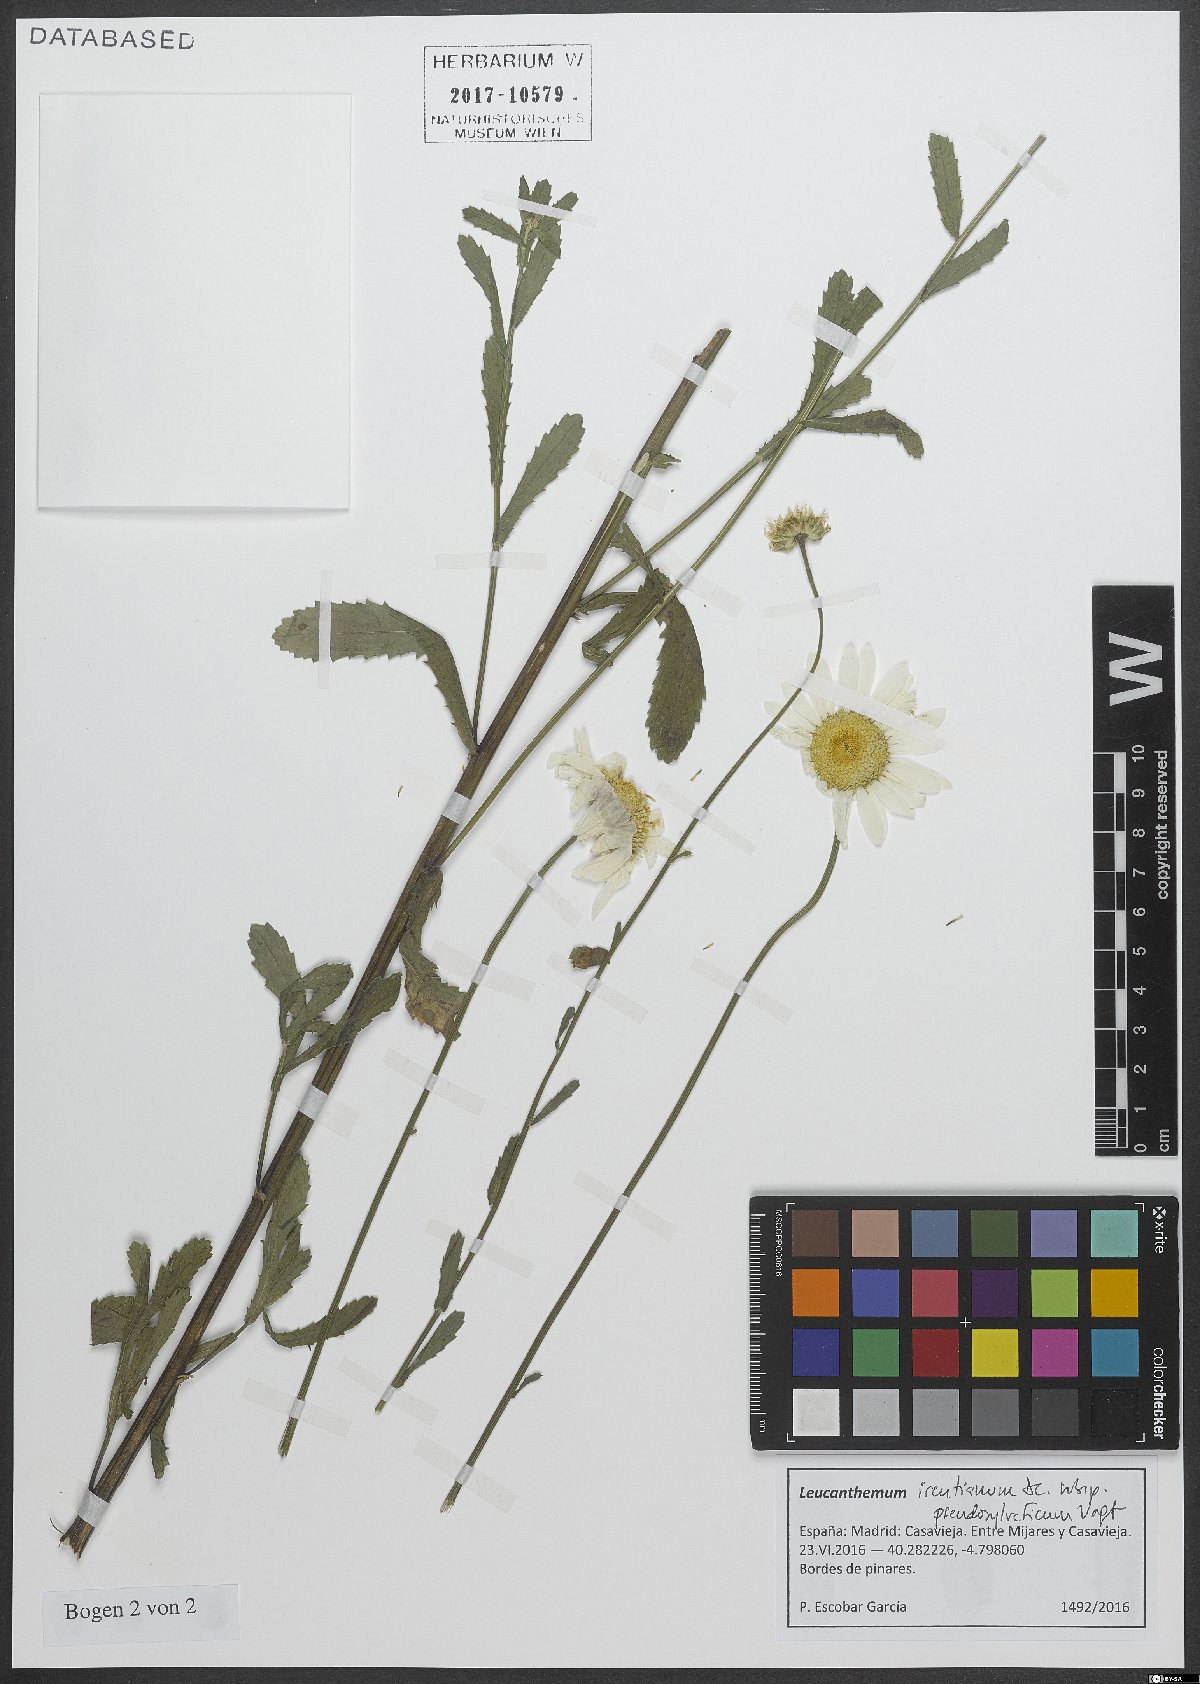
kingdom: Plantae
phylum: Tracheophyta
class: Magnoliopsida
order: Asterales
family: Asteraceae
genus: Leucanthemum
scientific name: Leucanthemum pseudosylvaticum
